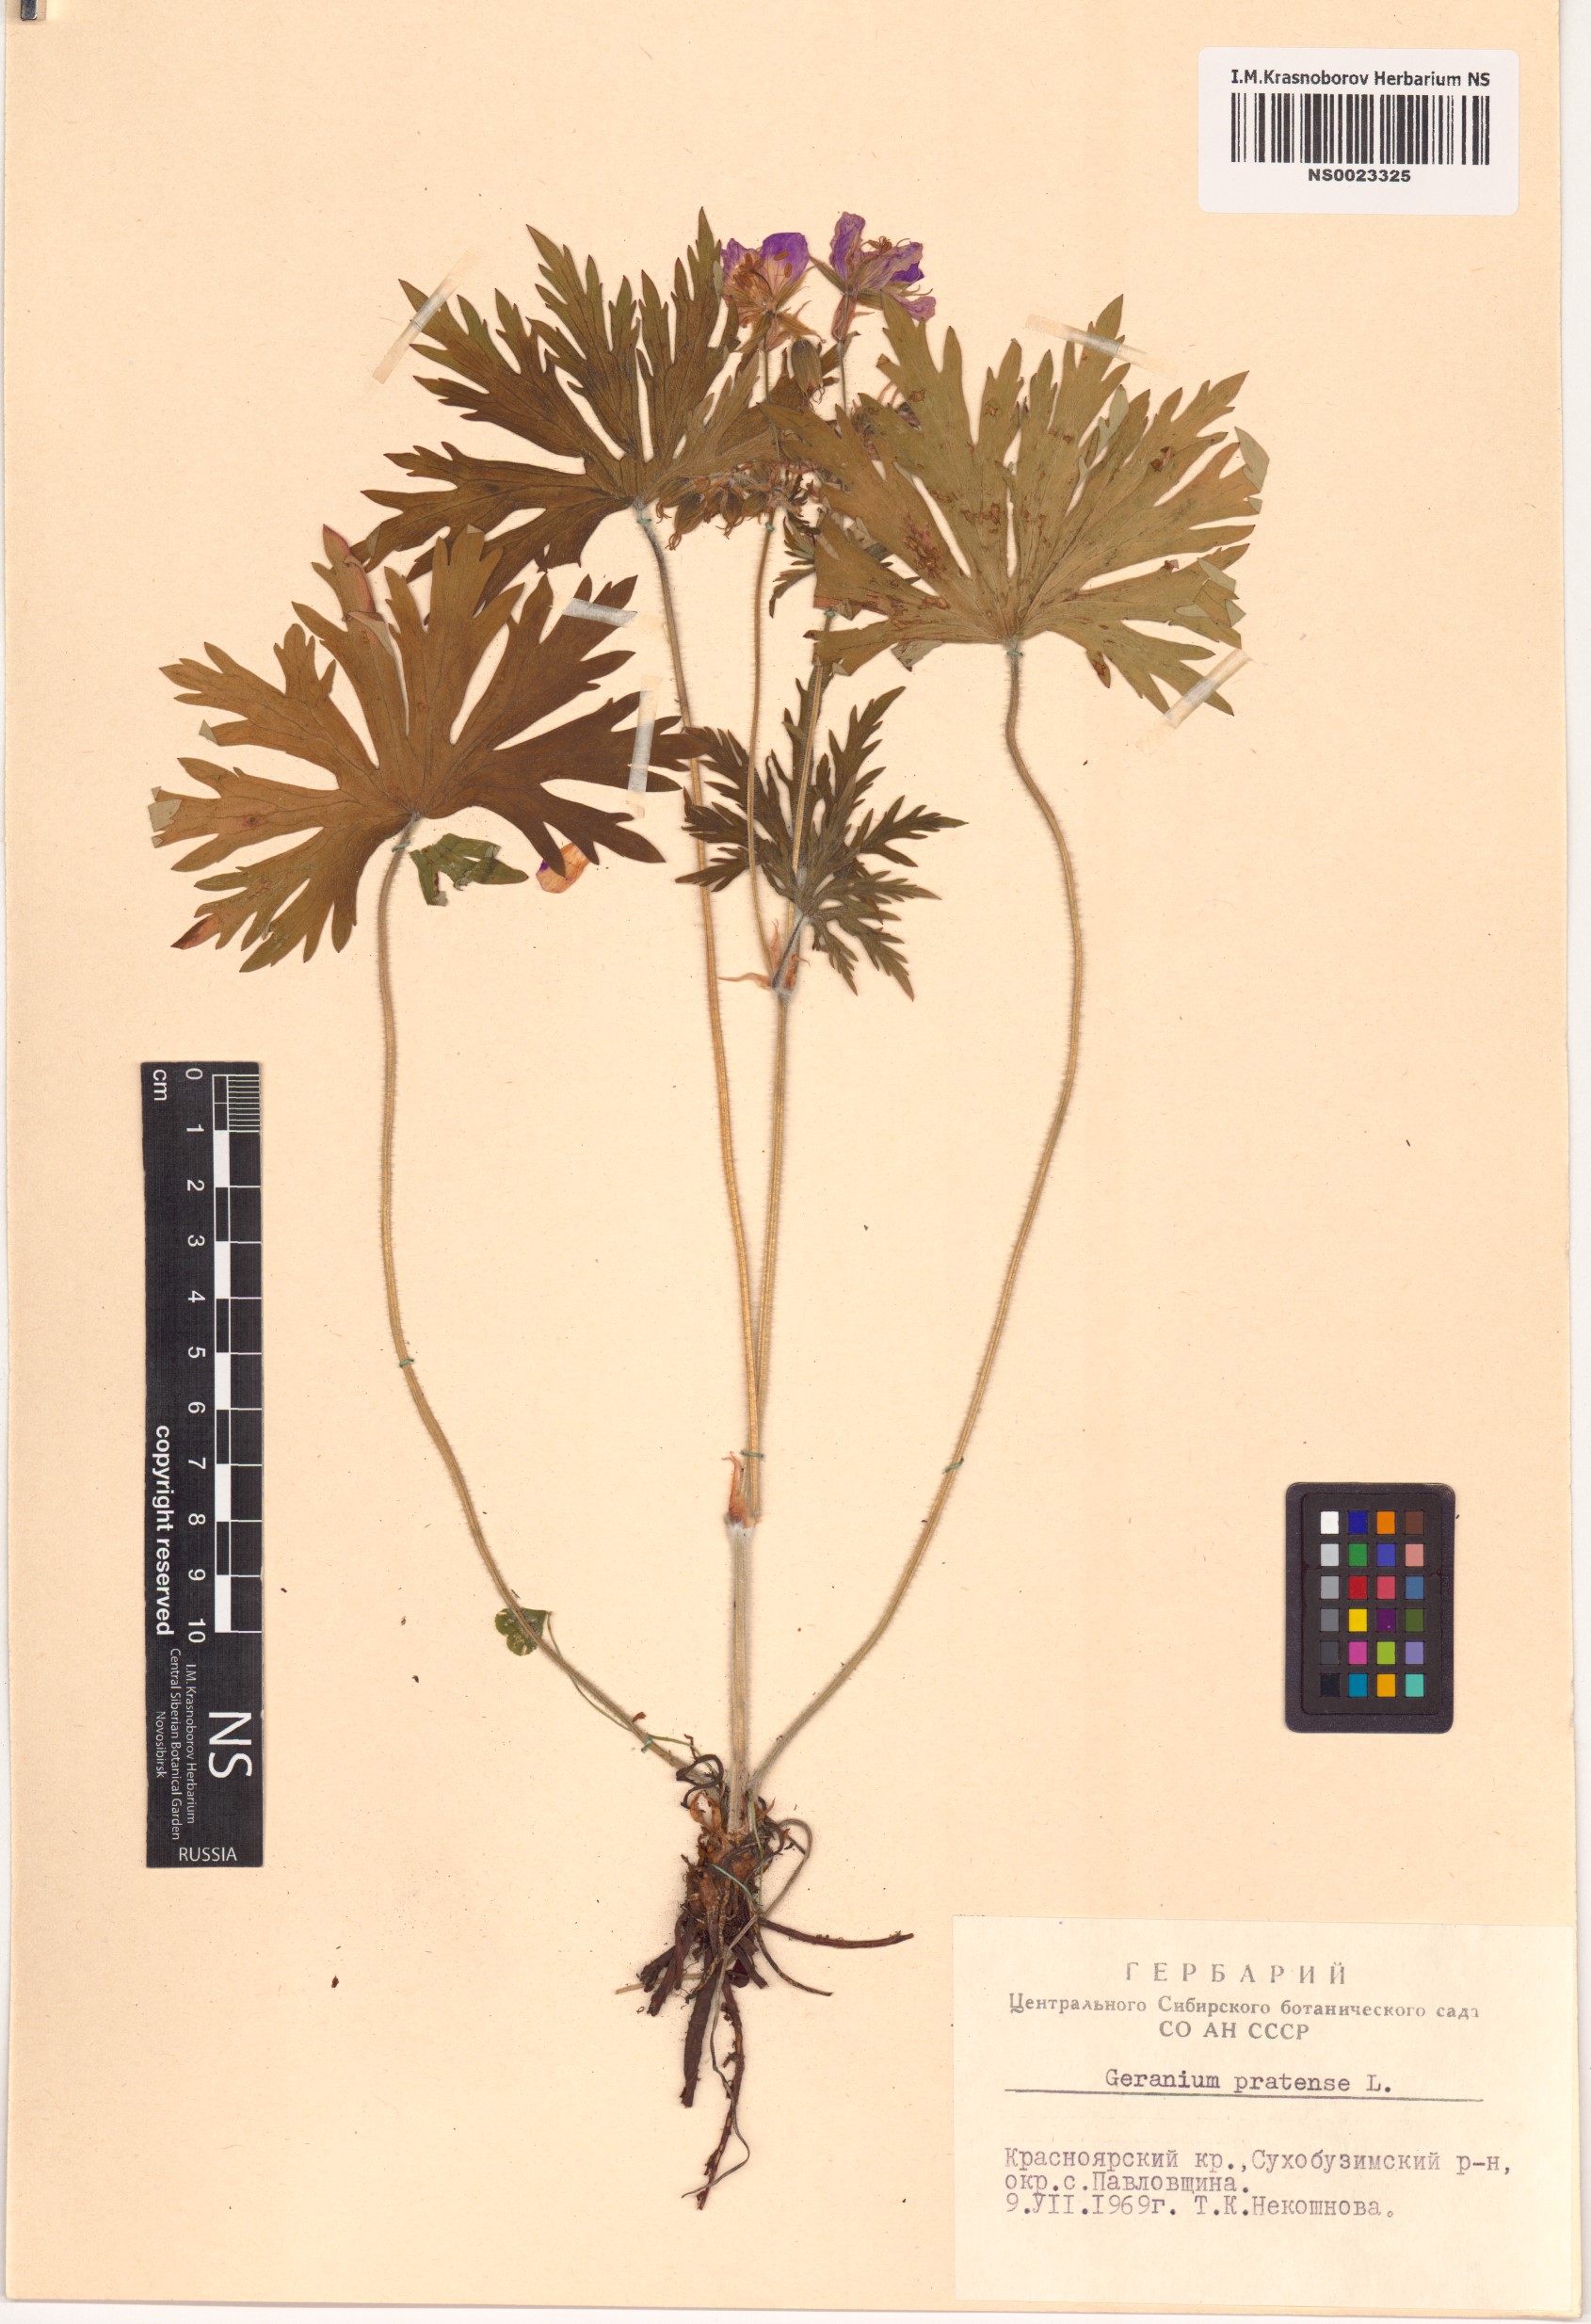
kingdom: Plantae
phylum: Tracheophyta
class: Magnoliopsida
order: Geraniales
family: Geraniaceae
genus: Geranium
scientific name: Geranium pratense
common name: Meadow crane's-bill
